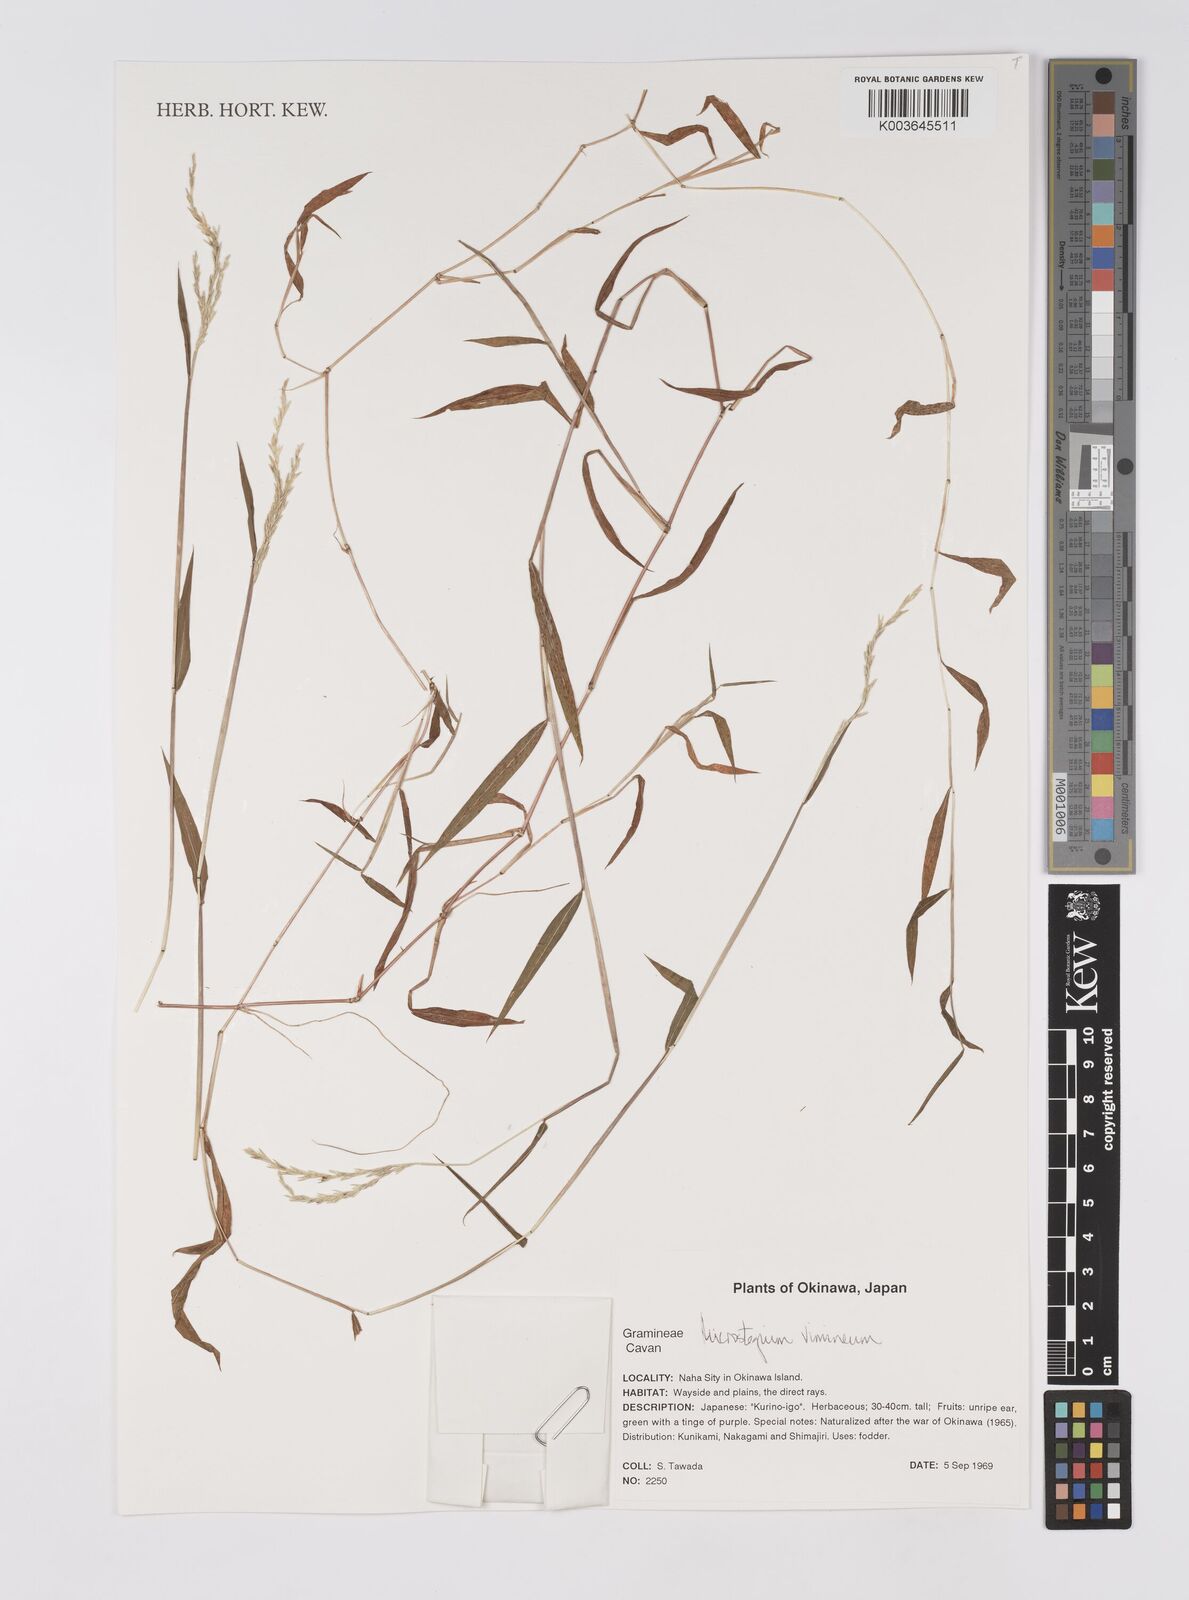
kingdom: Plantae
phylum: Tracheophyta
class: Liliopsida
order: Poales
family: Poaceae
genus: Microstegium
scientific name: Microstegium vimineum
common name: Japanese stiltgrass
